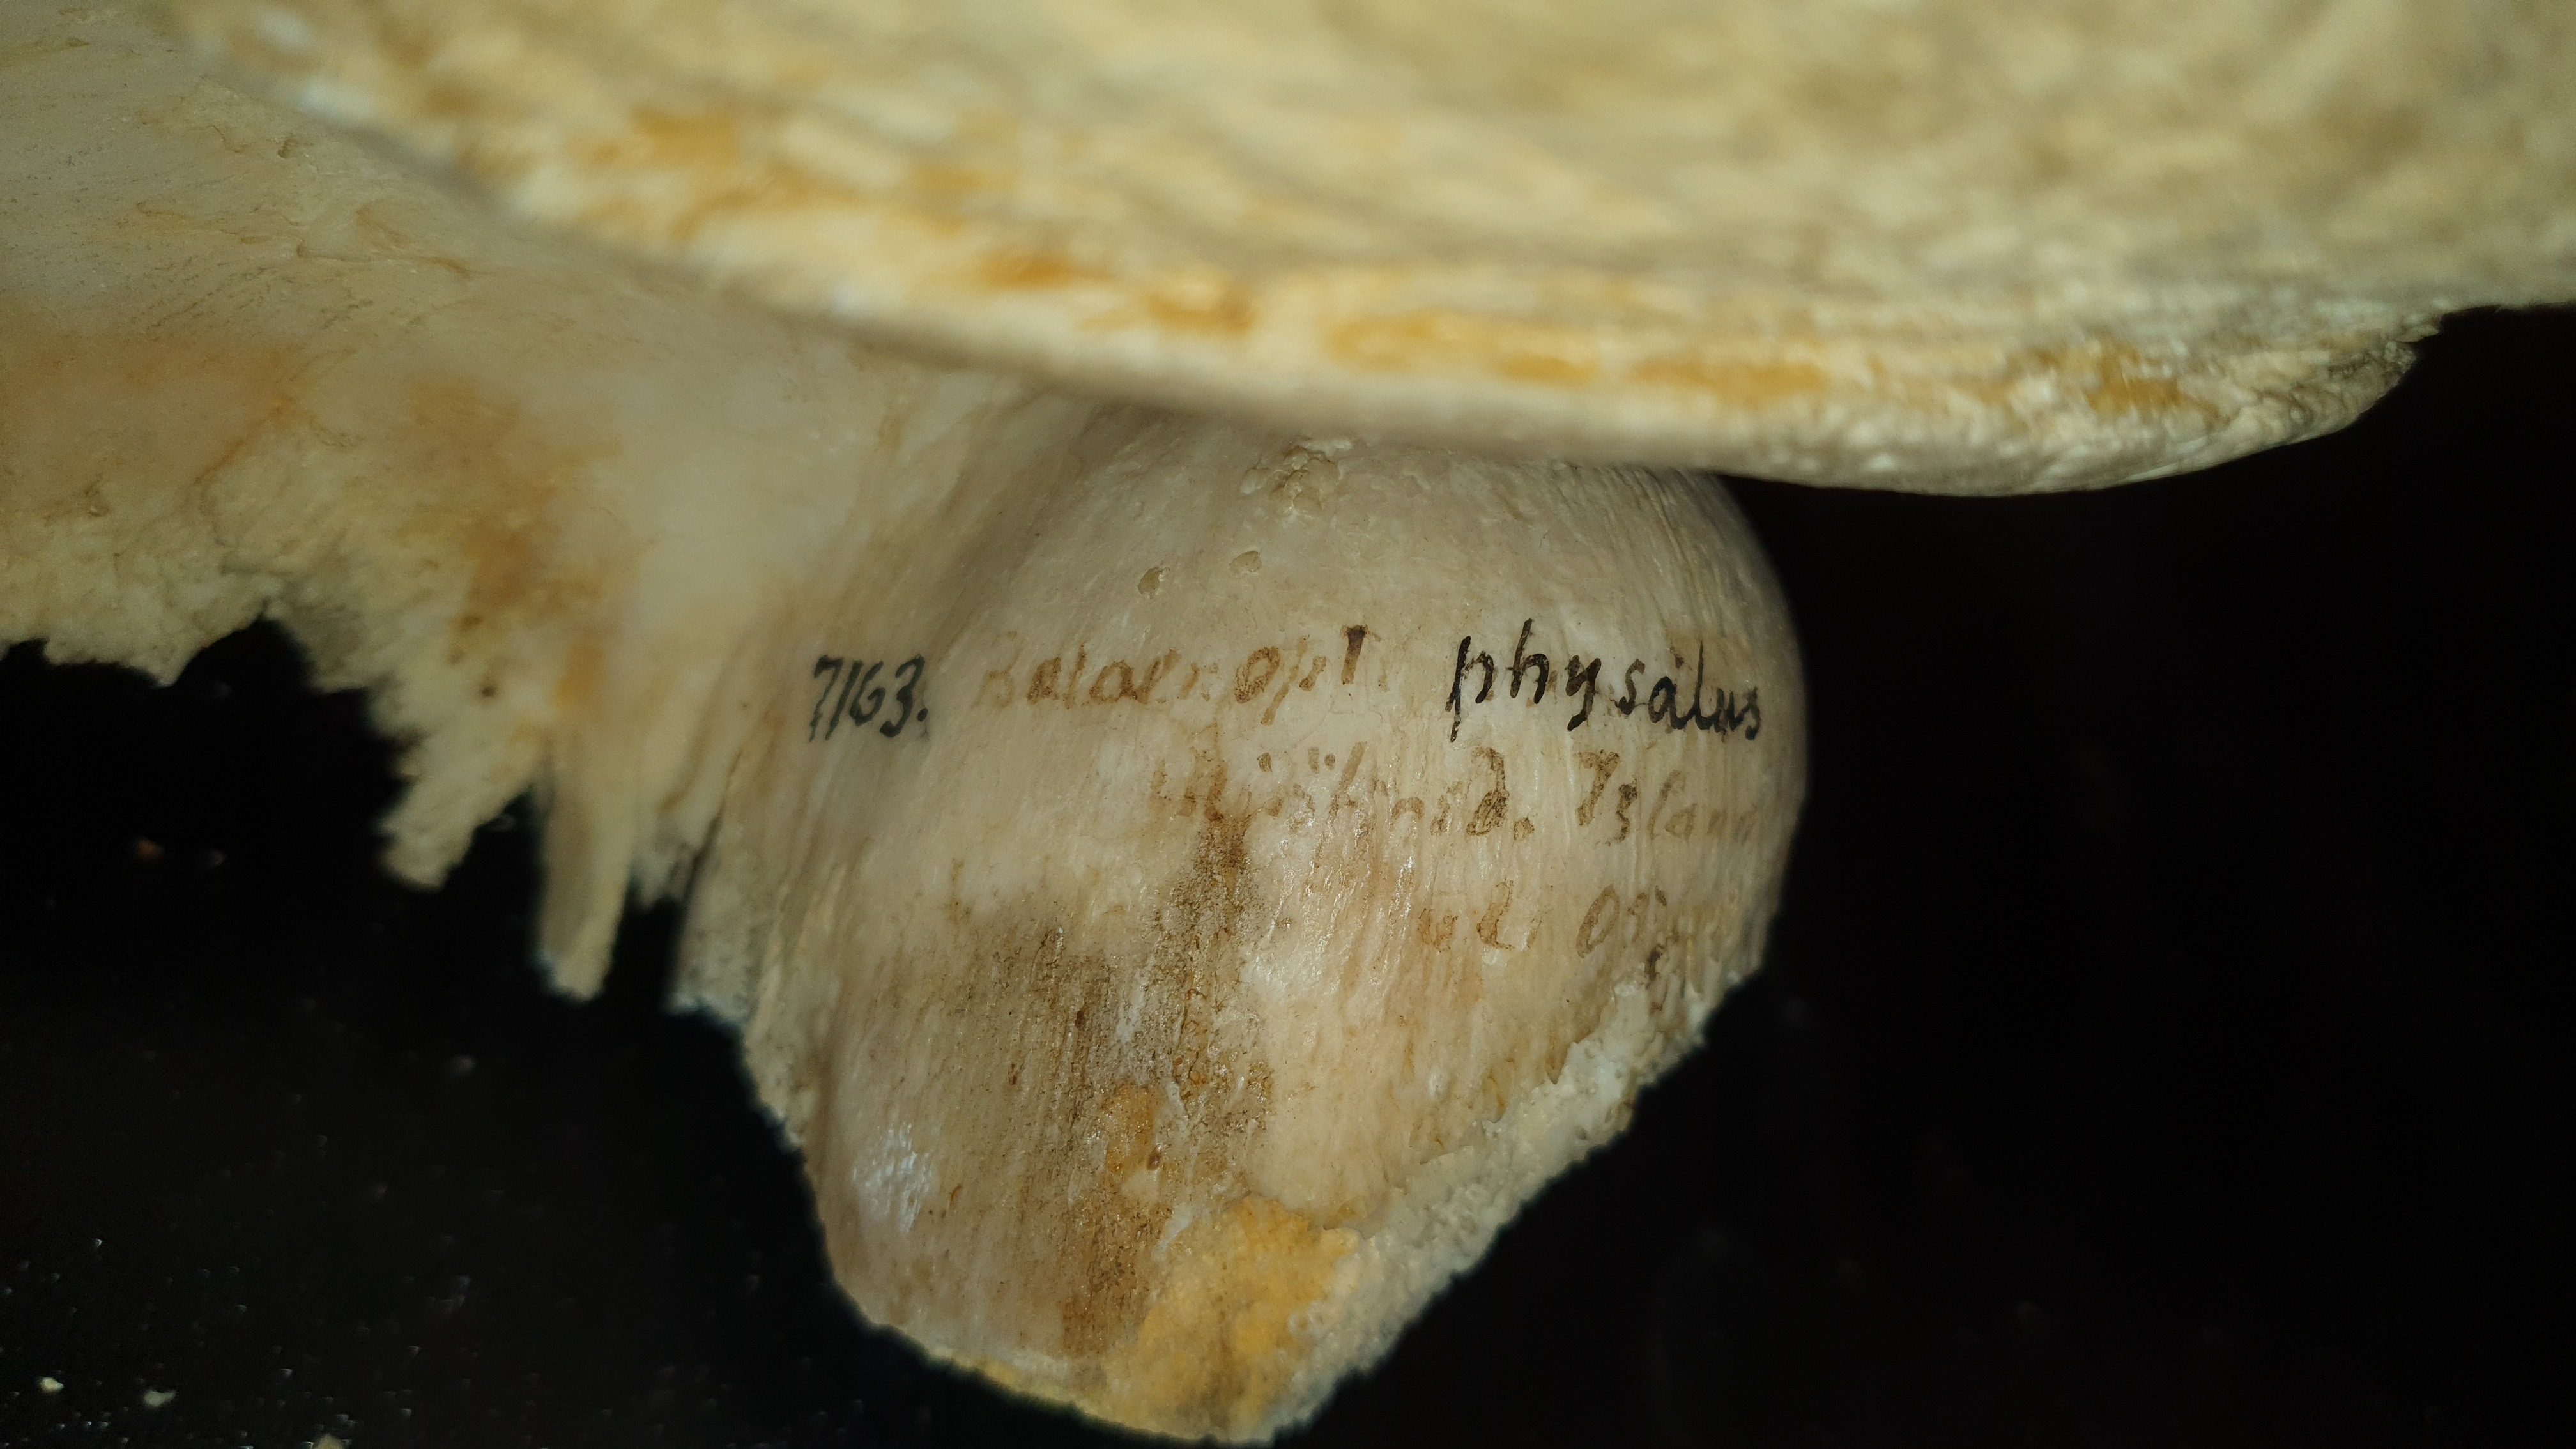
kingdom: Animalia
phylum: Chordata
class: Mammalia
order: Cetacea
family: Balaenopteridae
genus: Balaenoptera
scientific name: Balaenoptera physalus
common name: Fin whale
